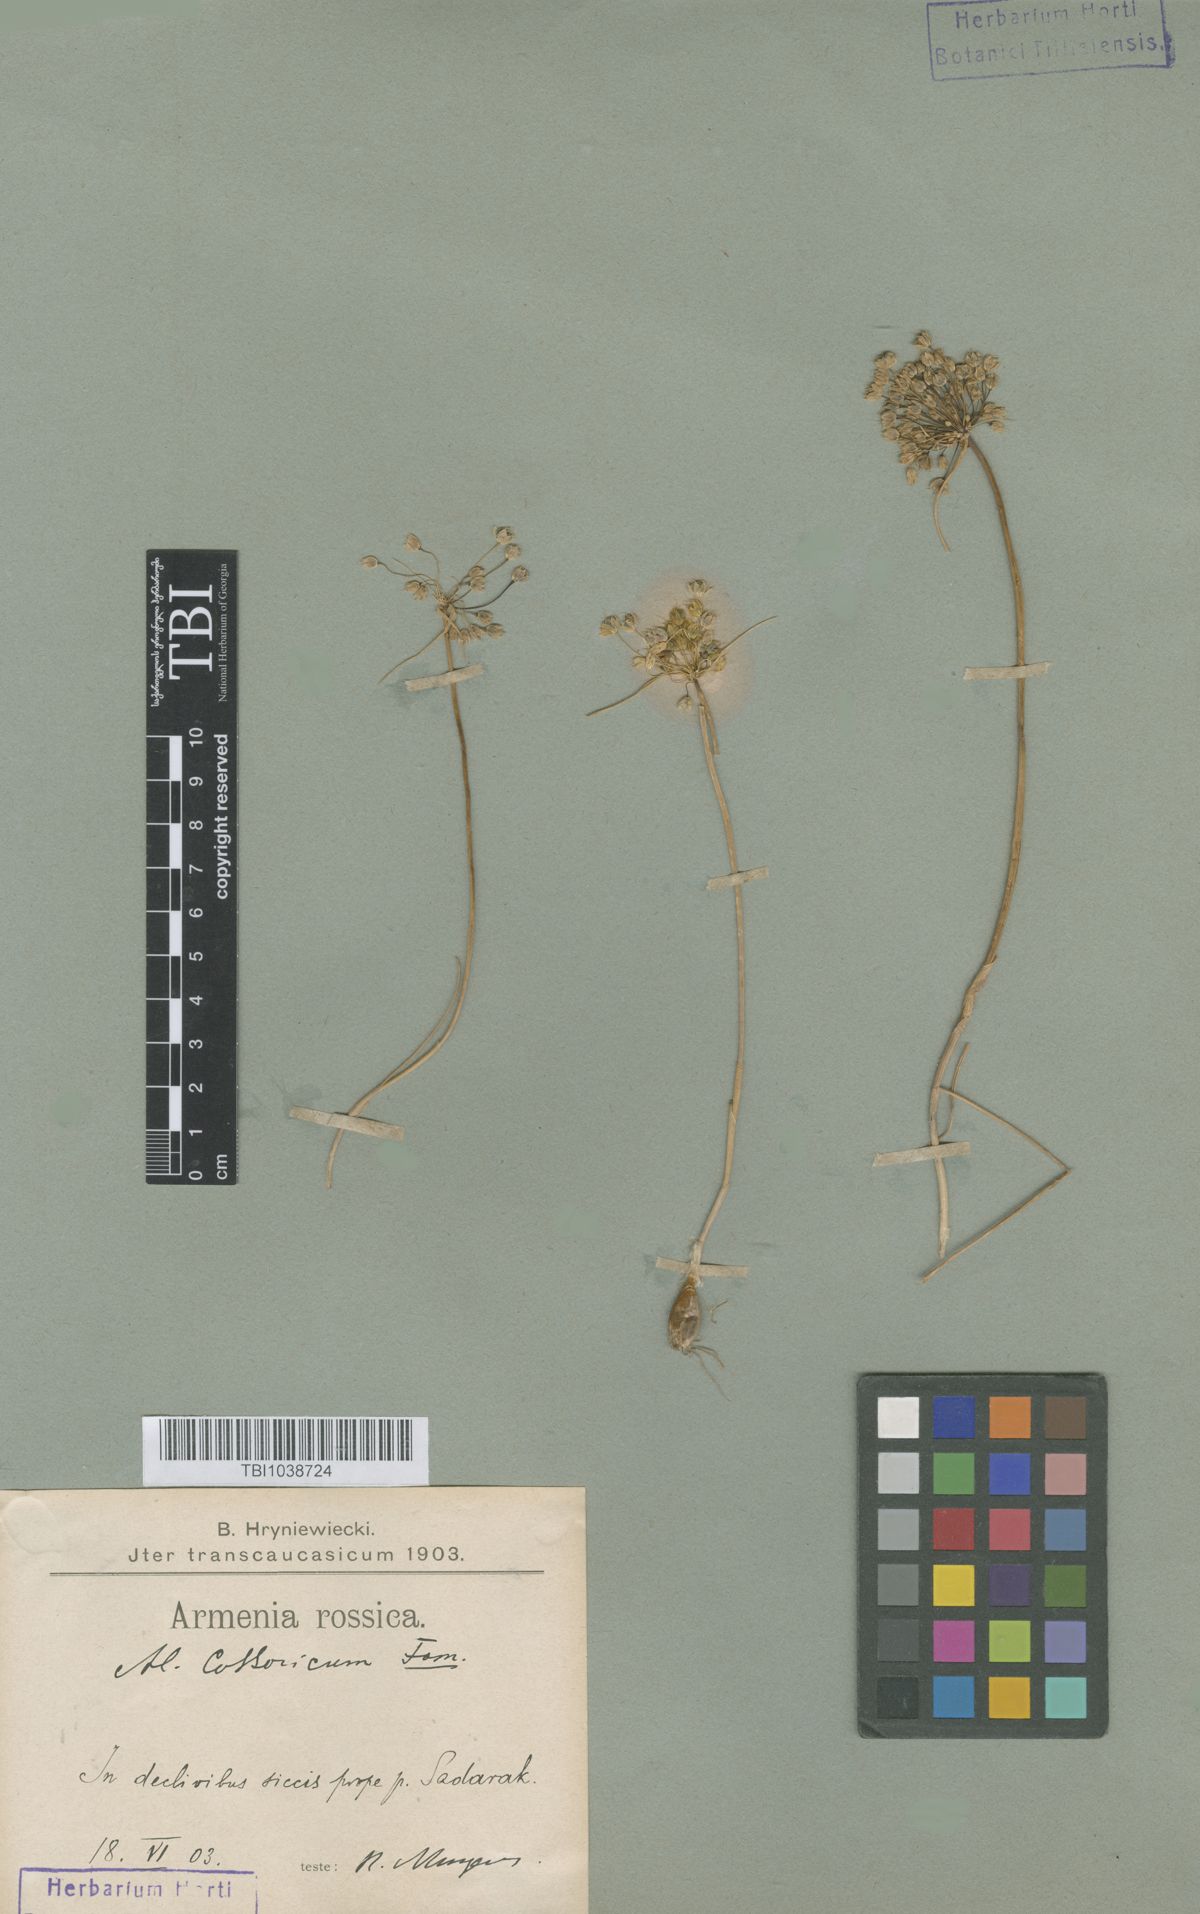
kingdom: Plantae
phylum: Tracheophyta
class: Liliopsida
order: Asparagales
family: Amaryllidaceae
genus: Allium
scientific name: Allium kossoricum
